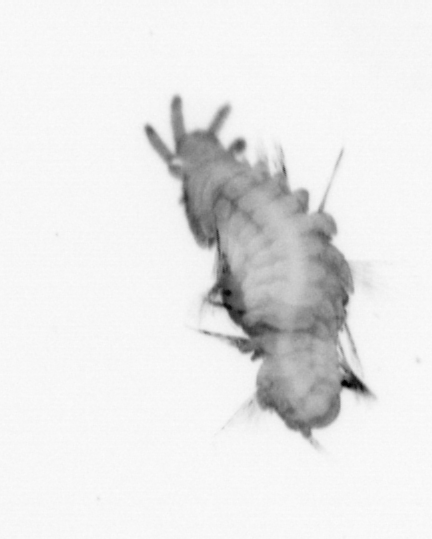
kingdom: Animalia
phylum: Annelida
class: Polychaeta
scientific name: Polychaeta
